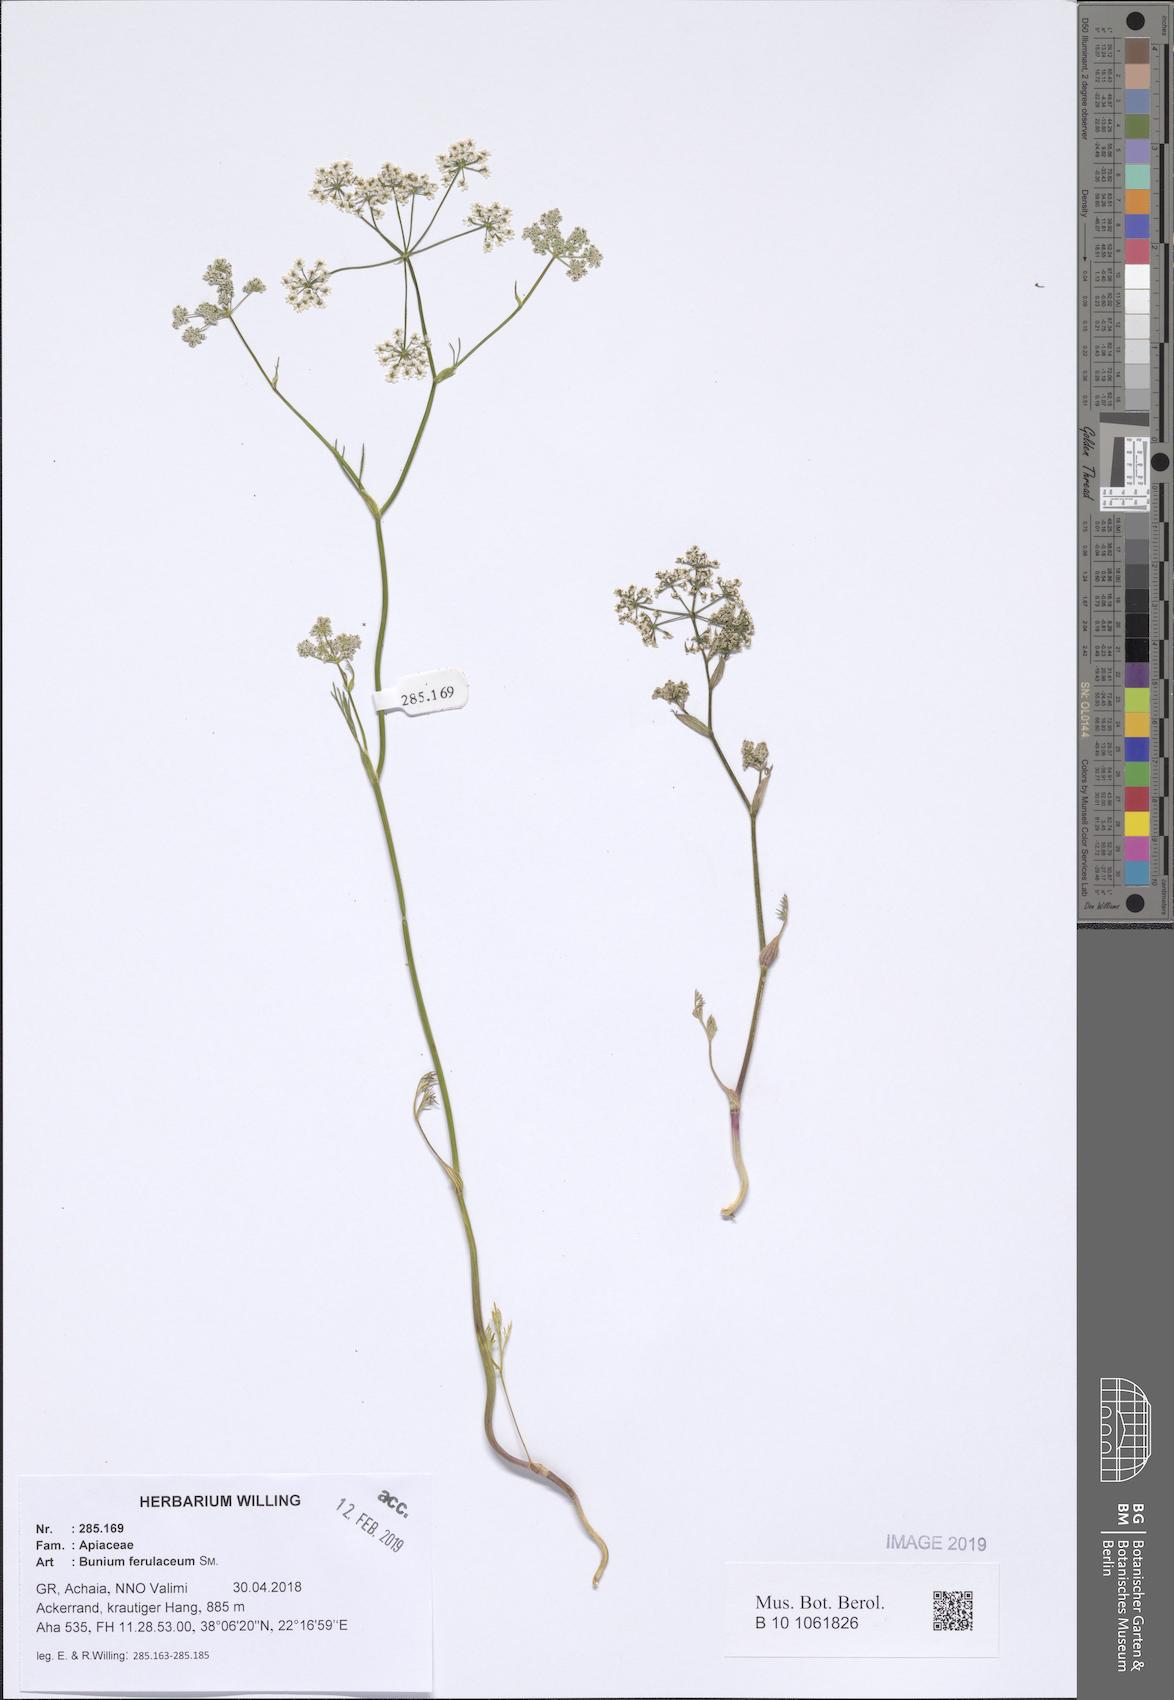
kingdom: Plantae
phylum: Tracheophyta
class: Magnoliopsida
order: Apiales
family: Apiaceae
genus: Bunium
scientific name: Bunium ferulaceum
